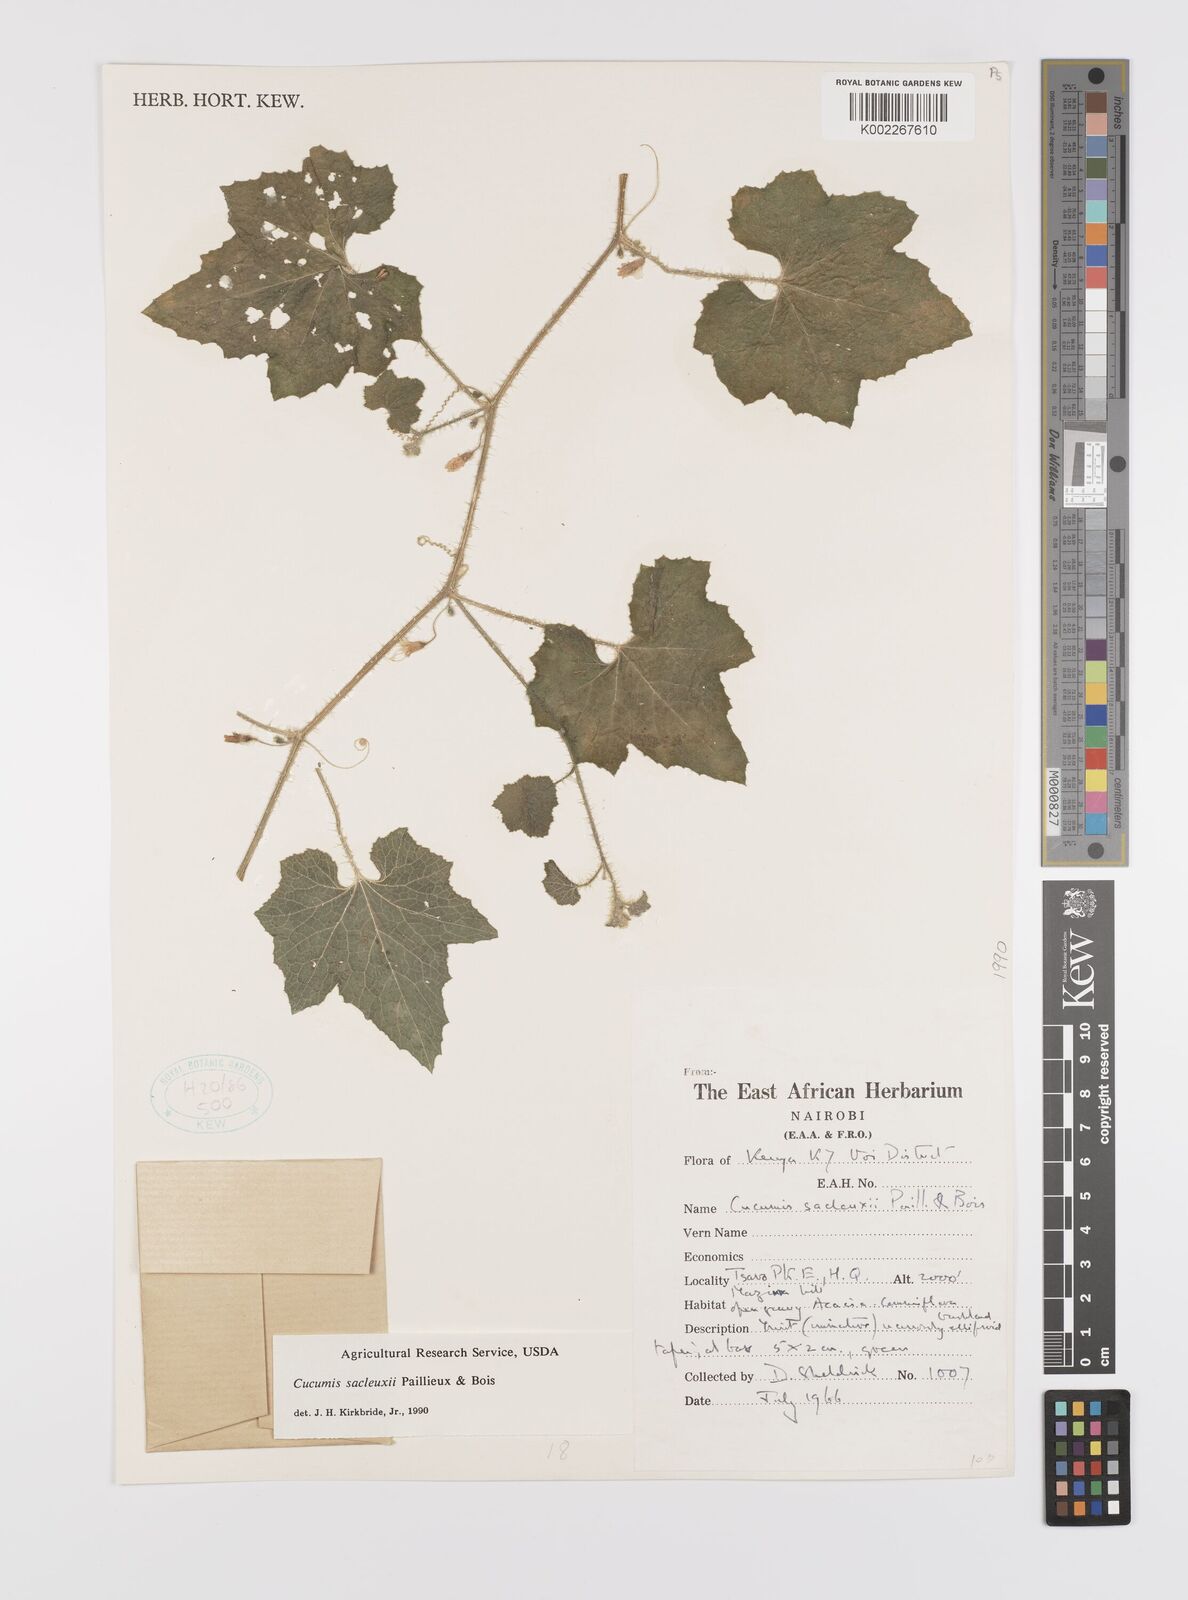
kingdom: Plantae
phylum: Tracheophyta
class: Magnoliopsida
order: Cucurbitales
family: Cucurbitaceae
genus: Cucumis
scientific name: Cucumis sacleuxii
